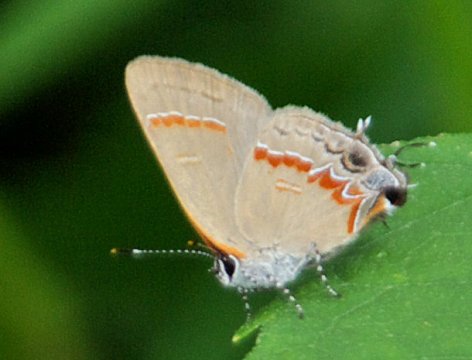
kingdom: Animalia
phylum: Arthropoda
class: Insecta
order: Lepidoptera
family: Lycaenidae
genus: Calycopis
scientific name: Calycopis cecrops
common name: Red-banded Hairstreak
